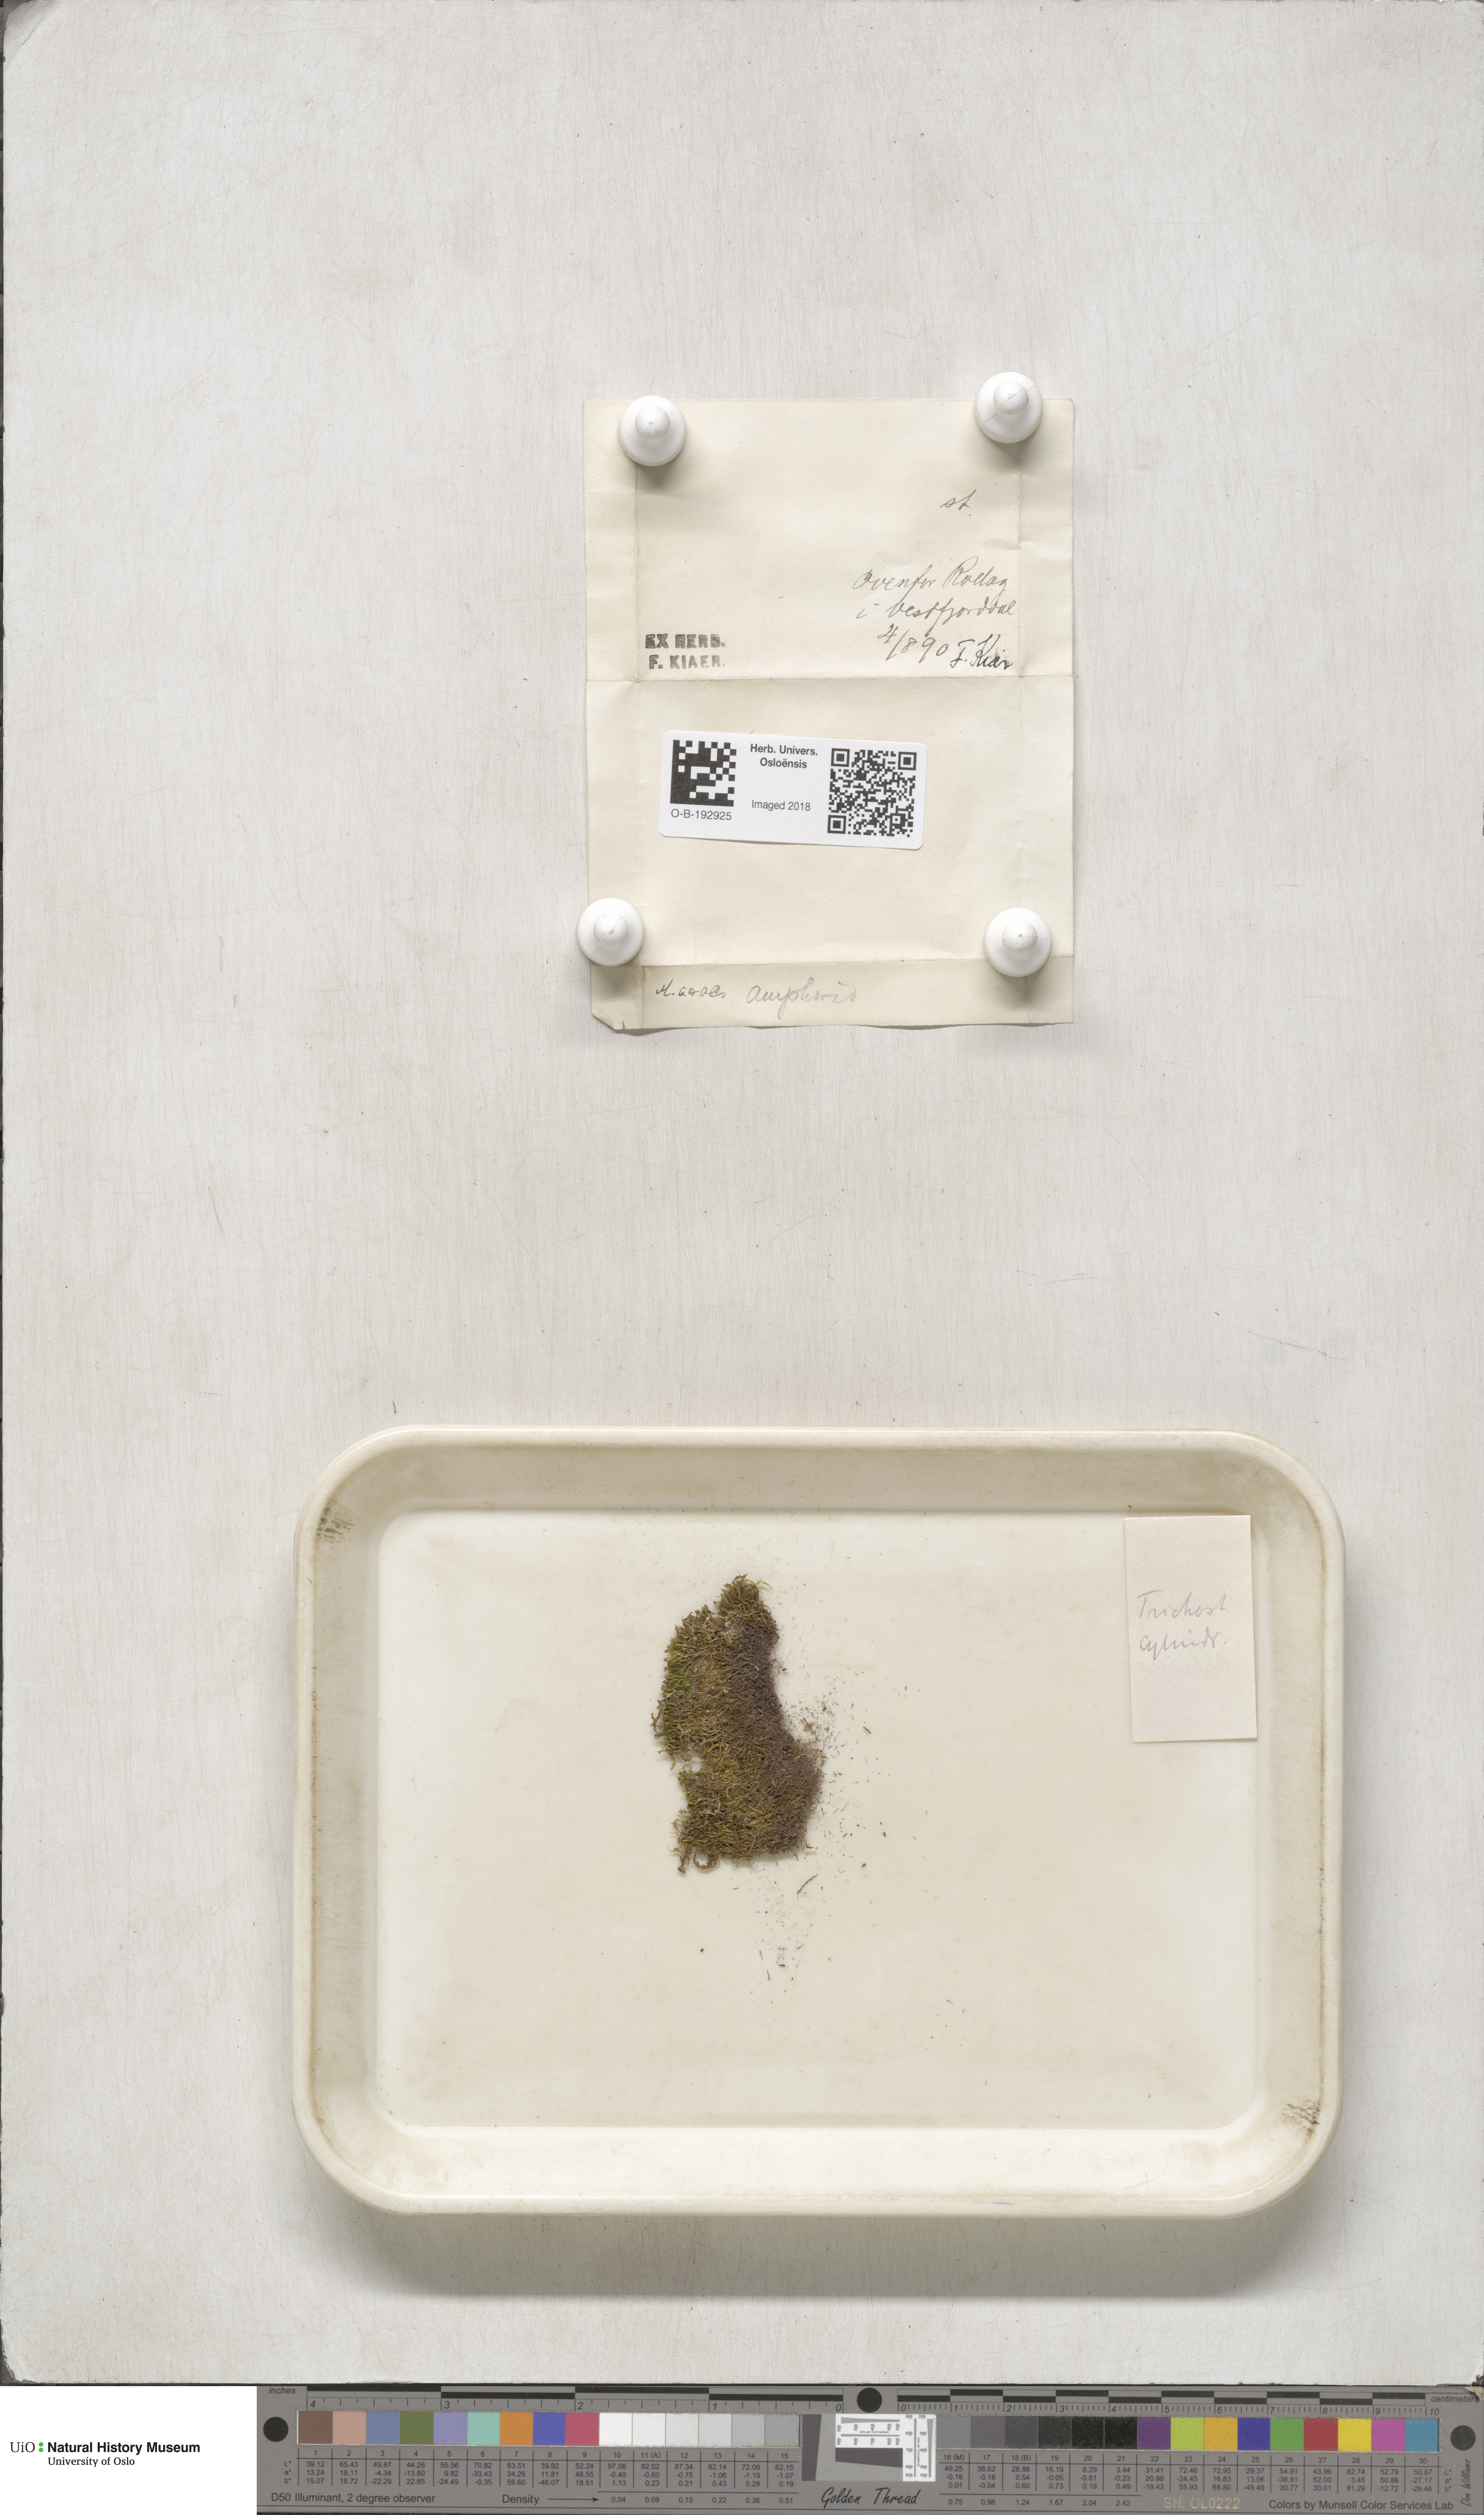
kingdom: Plantae
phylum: Bryophyta
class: Bryopsida
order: Pottiales
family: Pottiaceae
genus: Chionoloma
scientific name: Chionoloma tenuirostre
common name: Narrow-fruited crisp-moss
